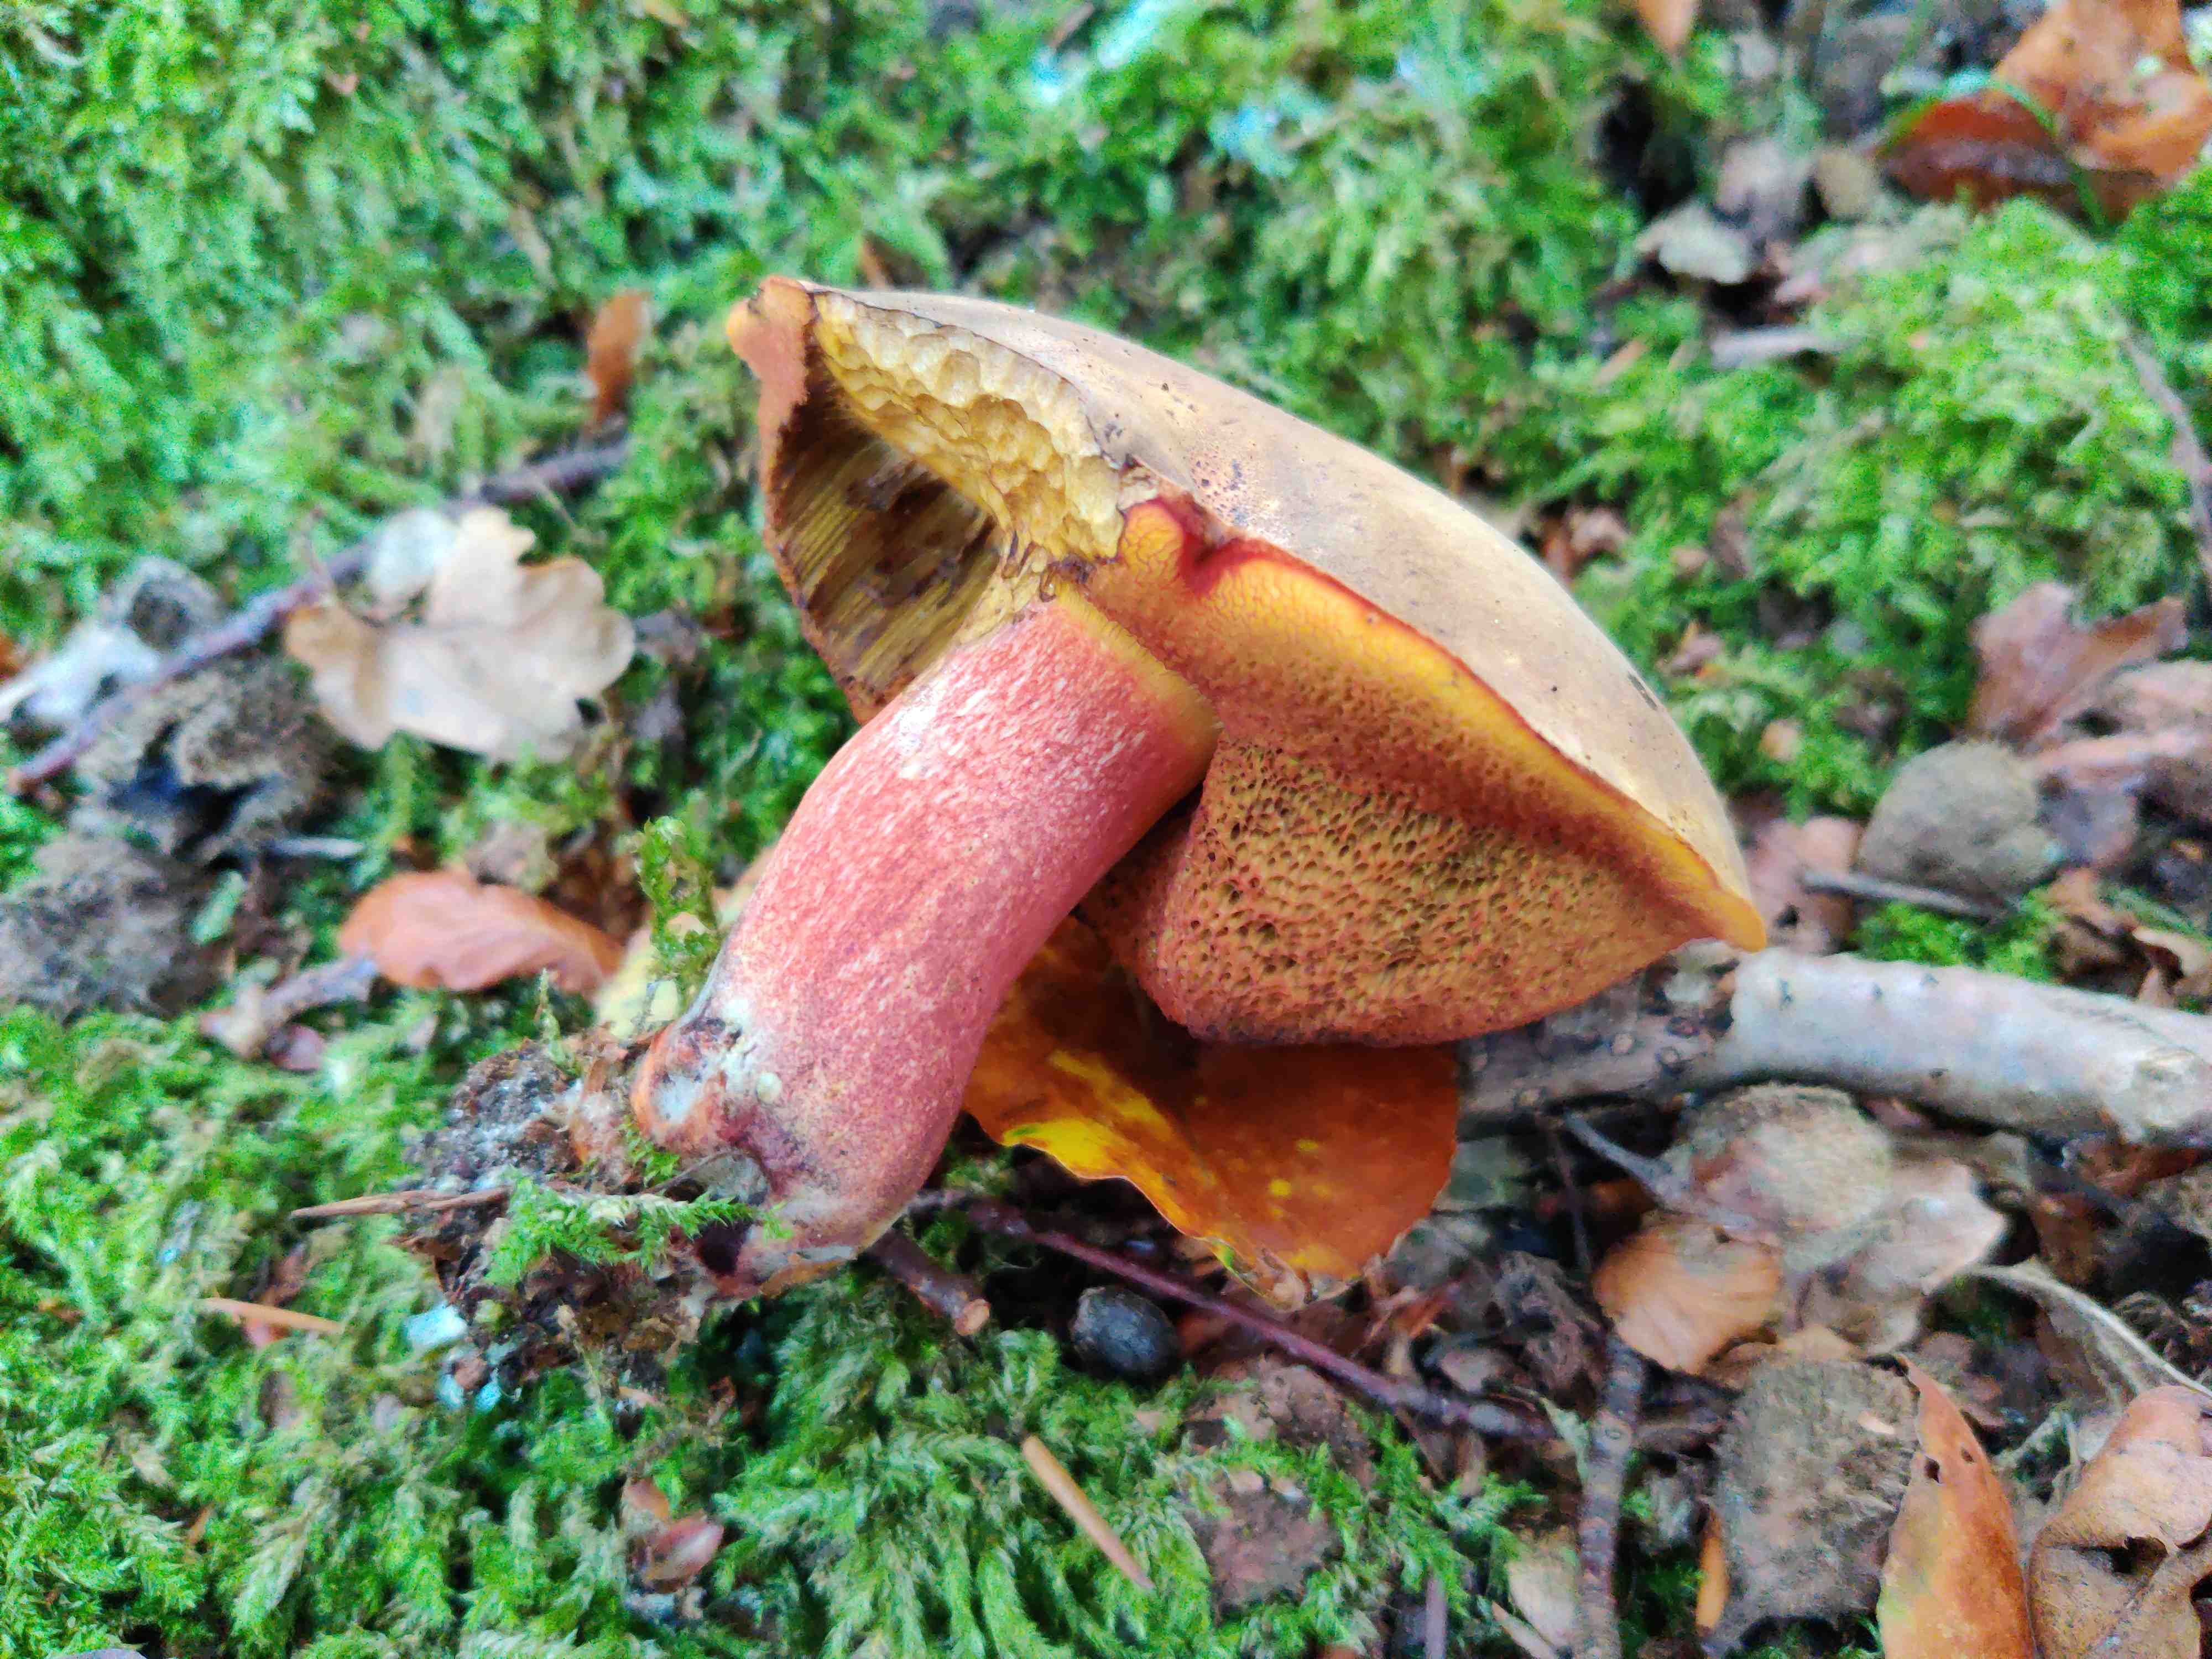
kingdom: Fungi
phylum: Basidiomycota
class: Agaricomycetes
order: Boletales
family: Boletaceae
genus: Neoboletus
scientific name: Neoboletus erythropus
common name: punktstokket indigorørhat
